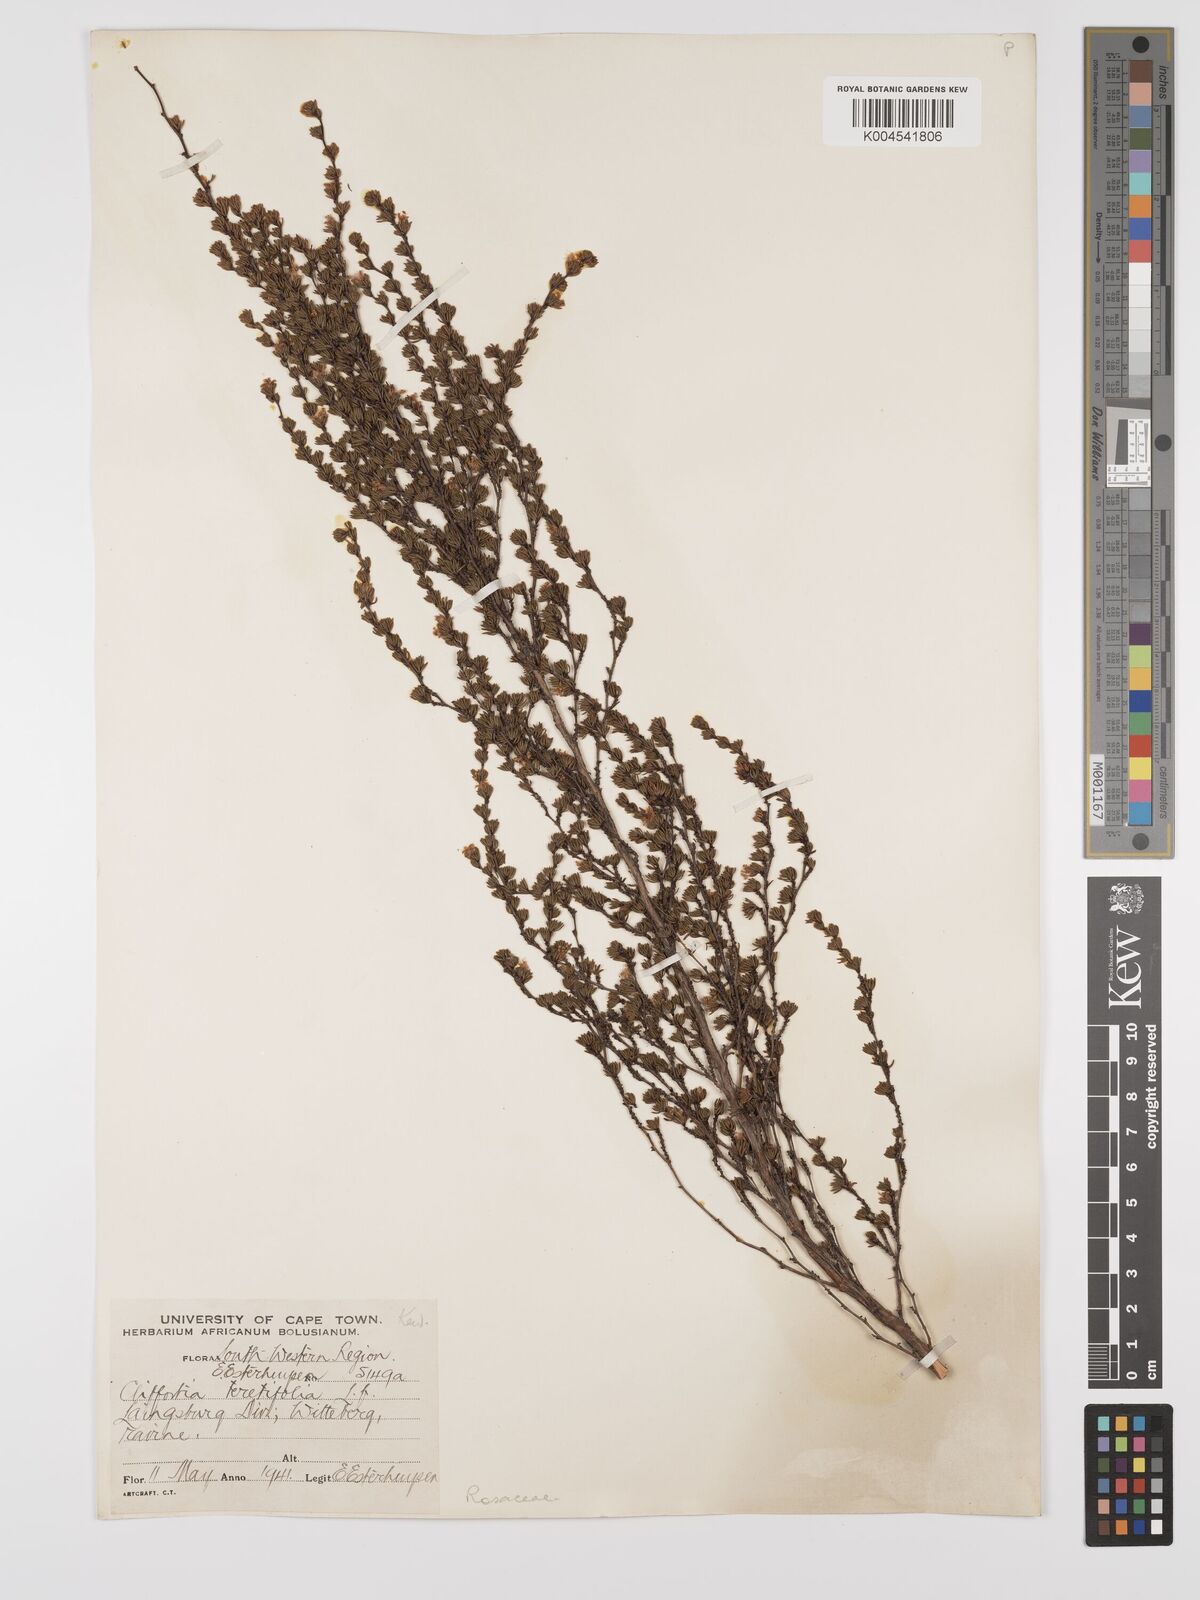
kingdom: Plantae
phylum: Tracheophyta
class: Magnoliopsida
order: Rosales
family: Rosaceae
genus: Cliffortia
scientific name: Cliffortia teretifolia
